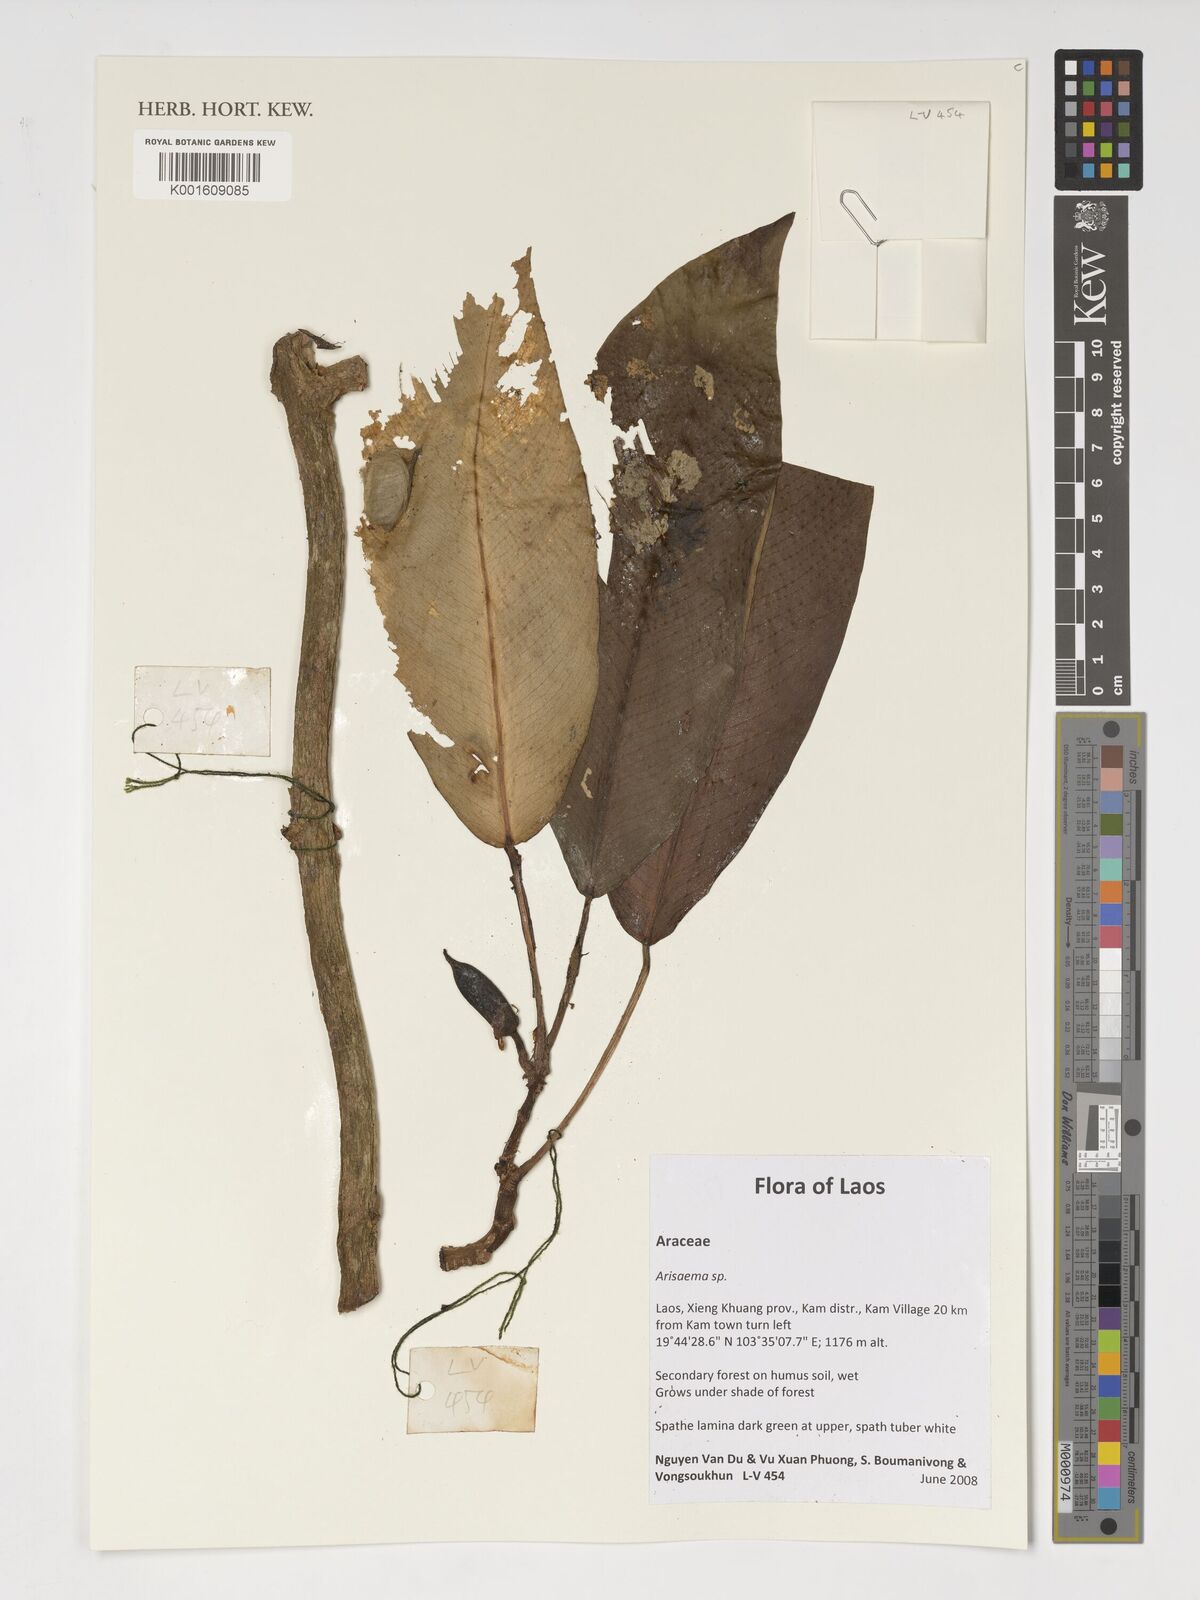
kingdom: Plantae
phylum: Tracheophyta
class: Liliopsida
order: Alismatales
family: Araceae
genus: Arisaema
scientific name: Arisaema
